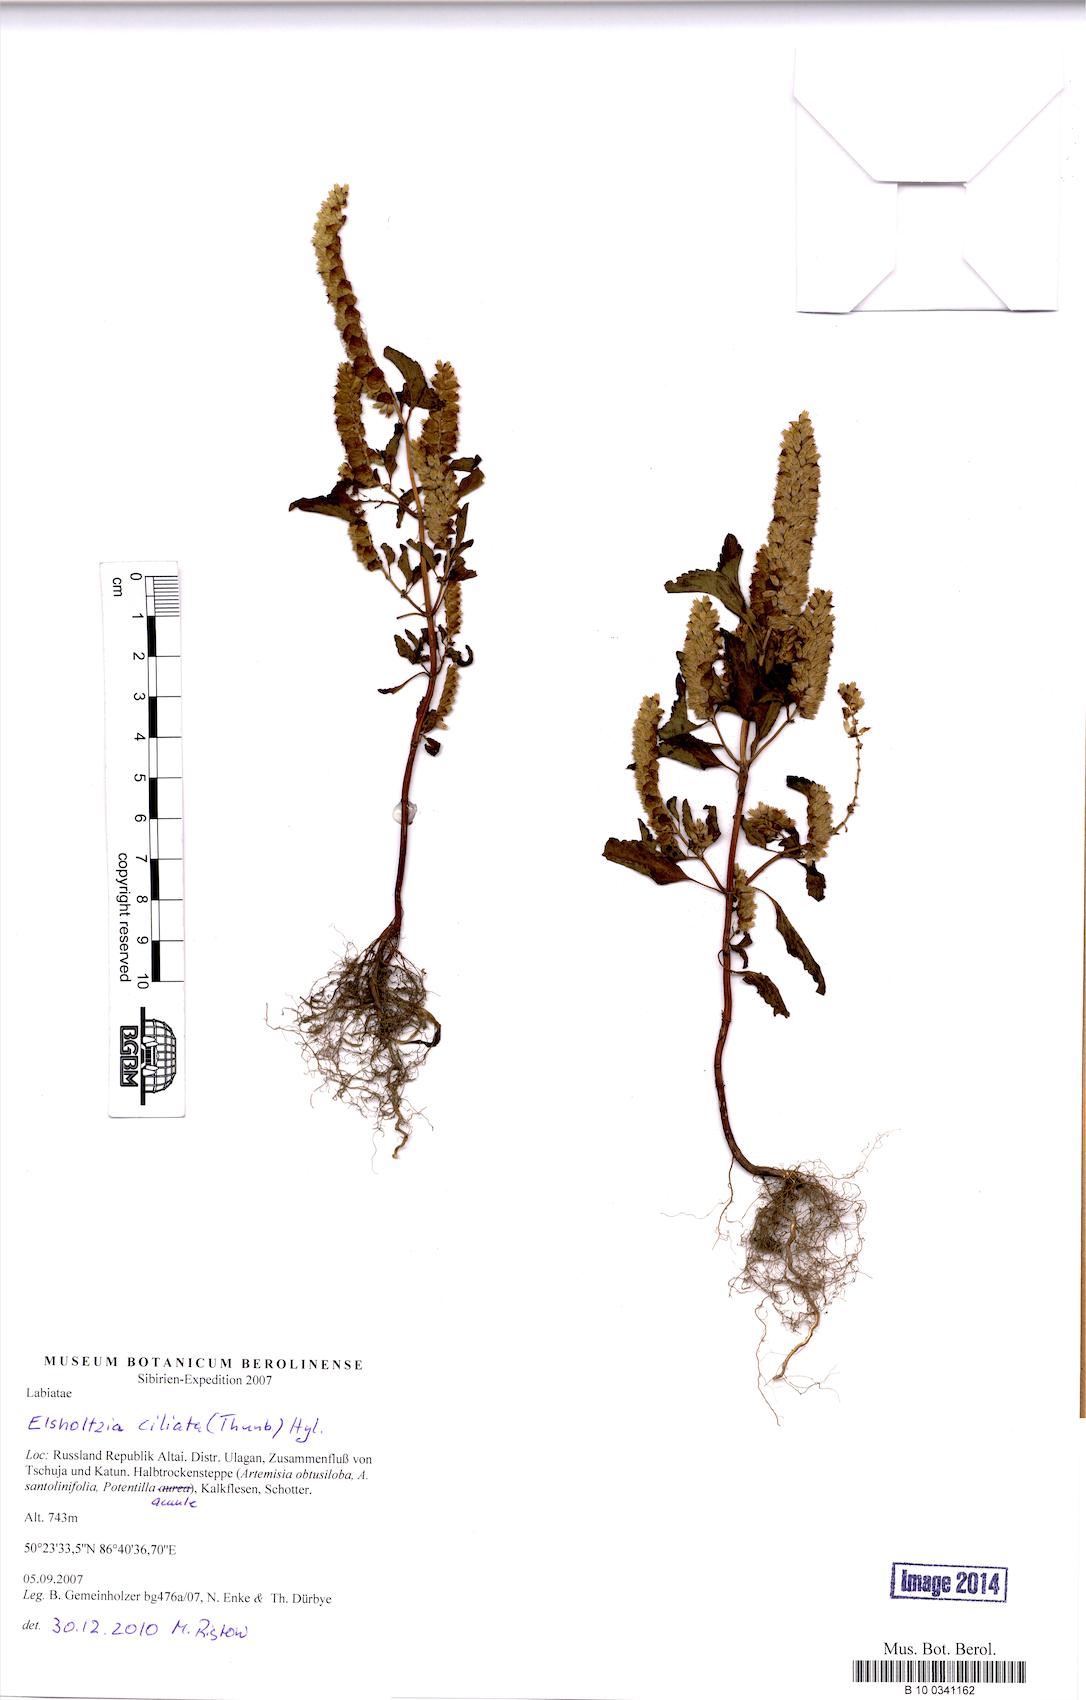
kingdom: Plantae
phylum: Tracheophyta
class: Magnoliopsida
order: Lamiales
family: Lamiaceae
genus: Elsholtzia
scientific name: Elsholtzia ciliata
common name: Ciliate elsholtzia
